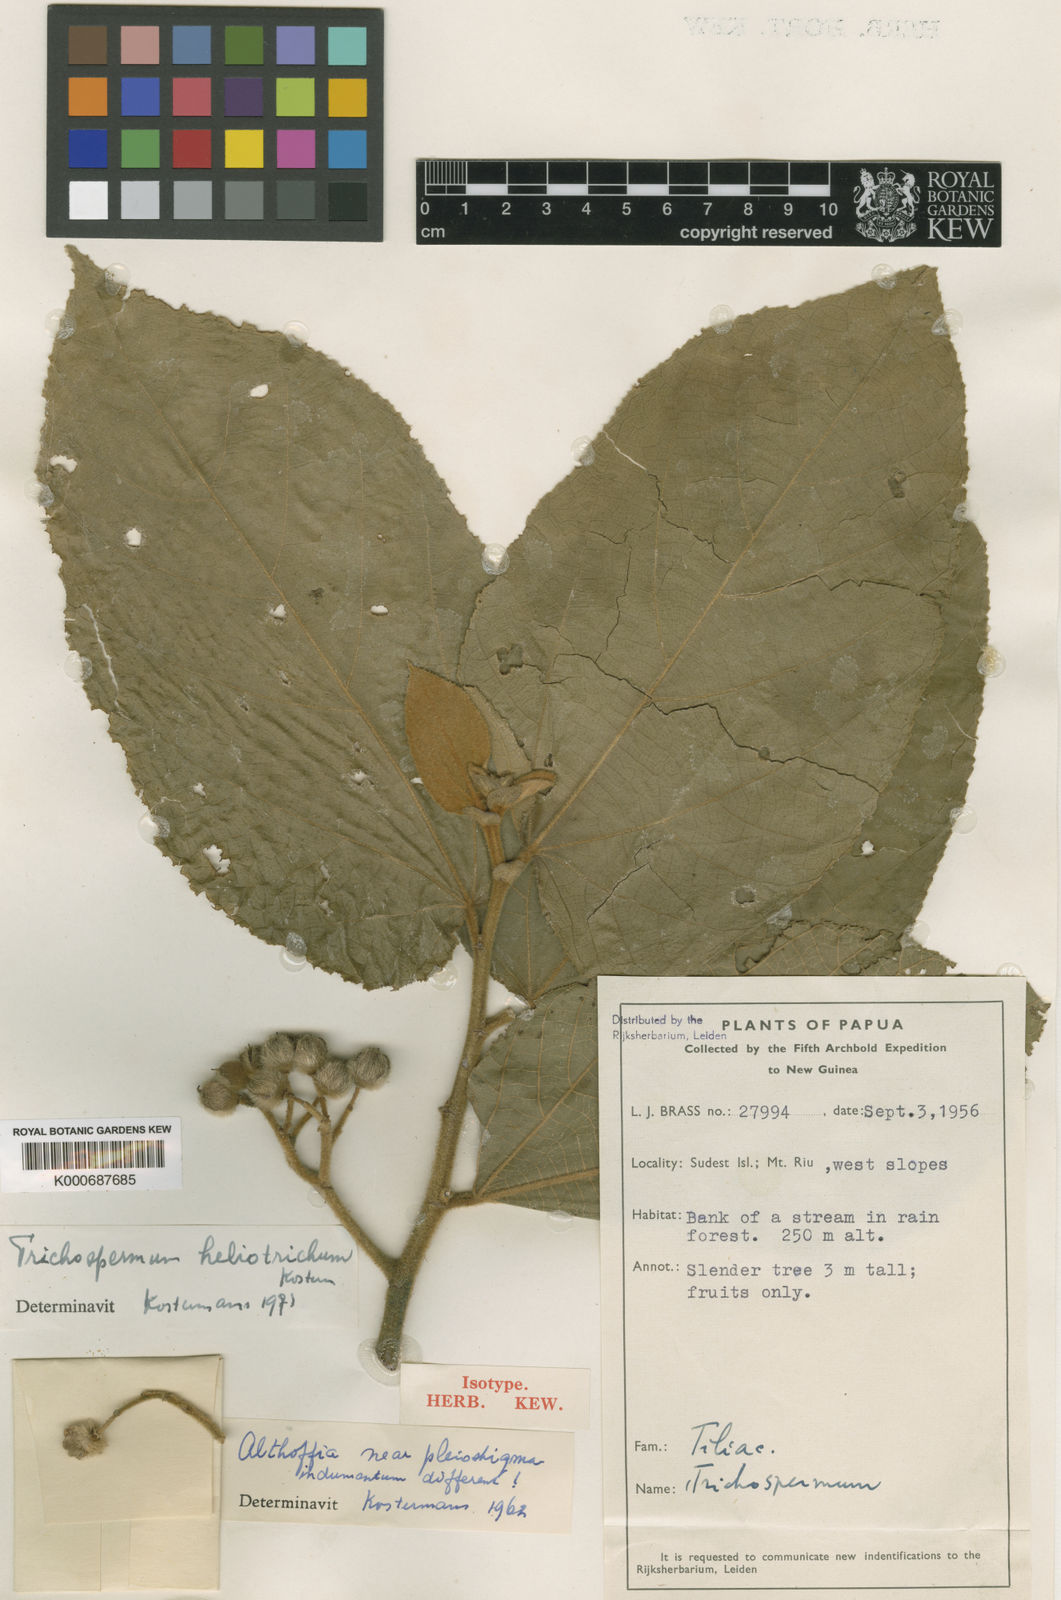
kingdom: Plantae
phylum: Tracheophyta
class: Magnoliopsida
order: Malvales
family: Malvaceae
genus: Trichospermum
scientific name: Trichospermum heliotrichum
